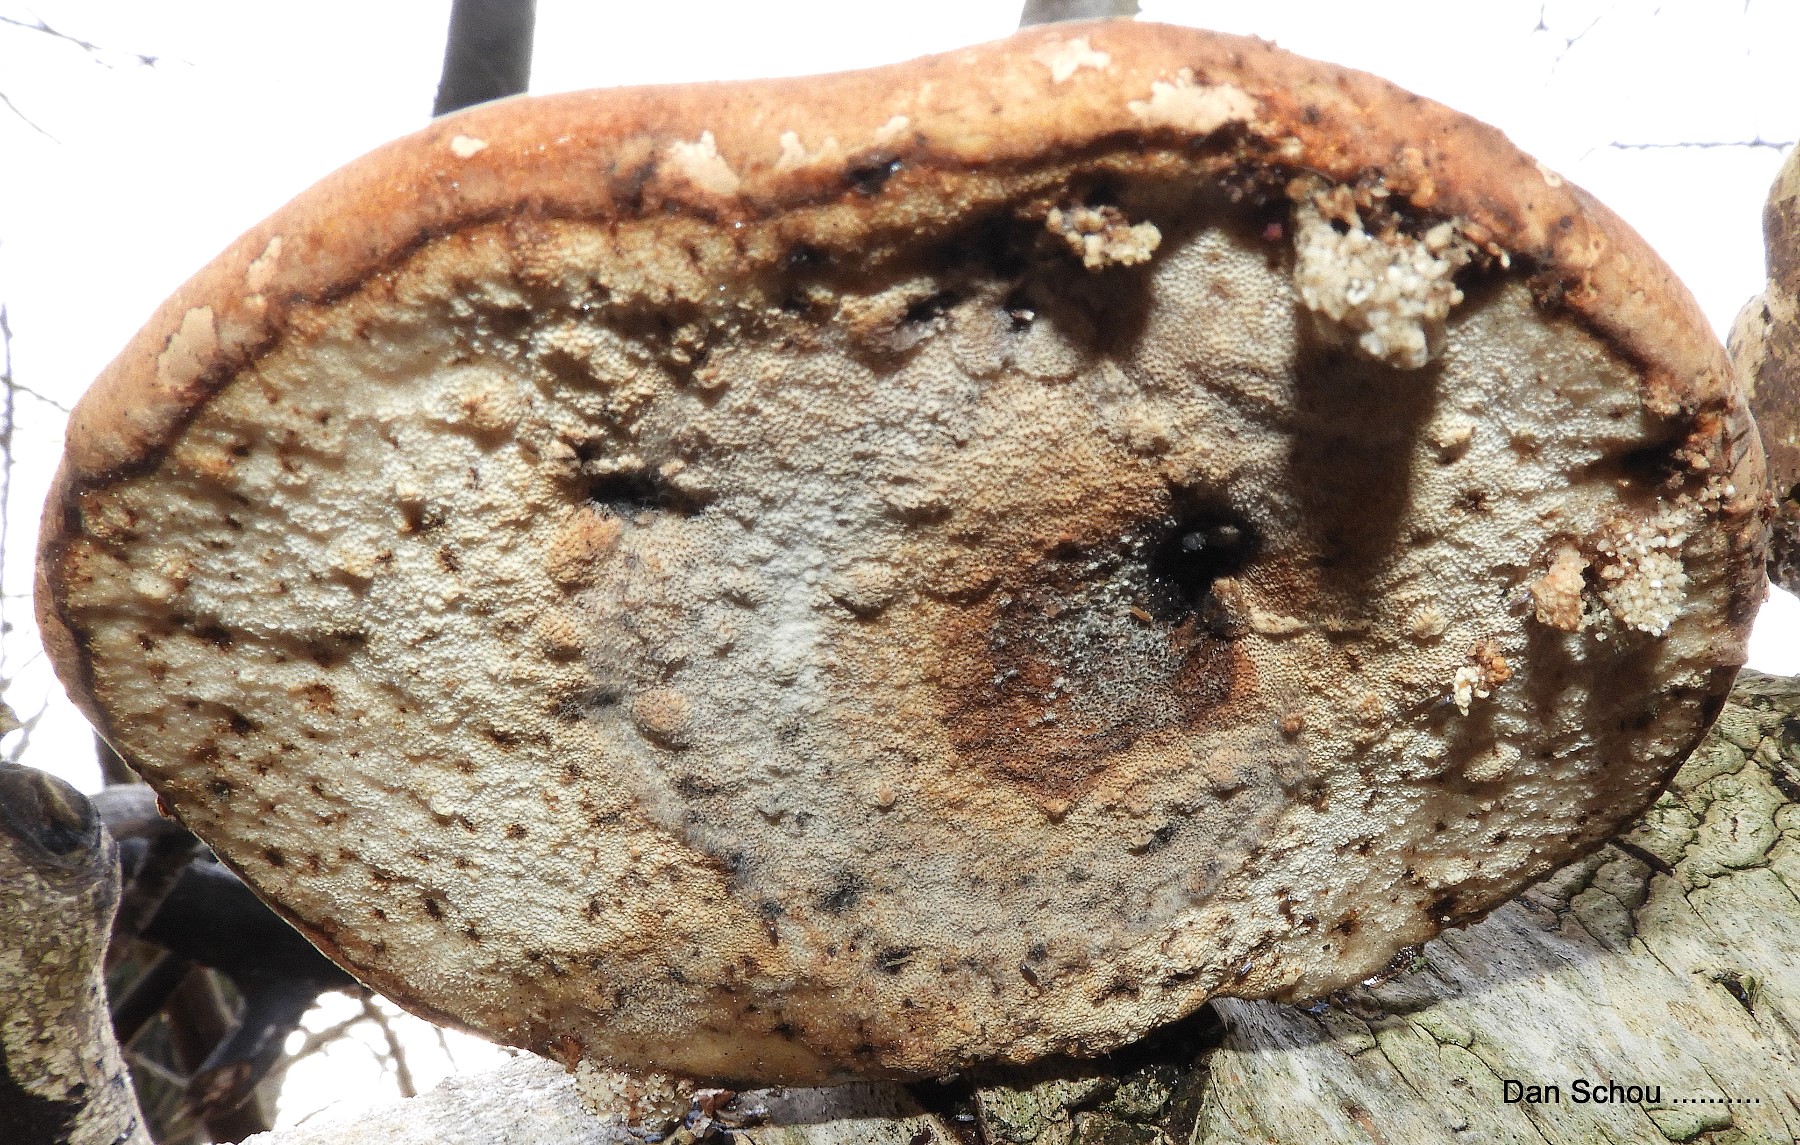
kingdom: Fungi
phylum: Basidiomycota
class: Agaricomycetes
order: Polyporales
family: Fomitopsidaceae
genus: Fomitopsis
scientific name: Fomitopsis betulina
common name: birkeporesvamp
